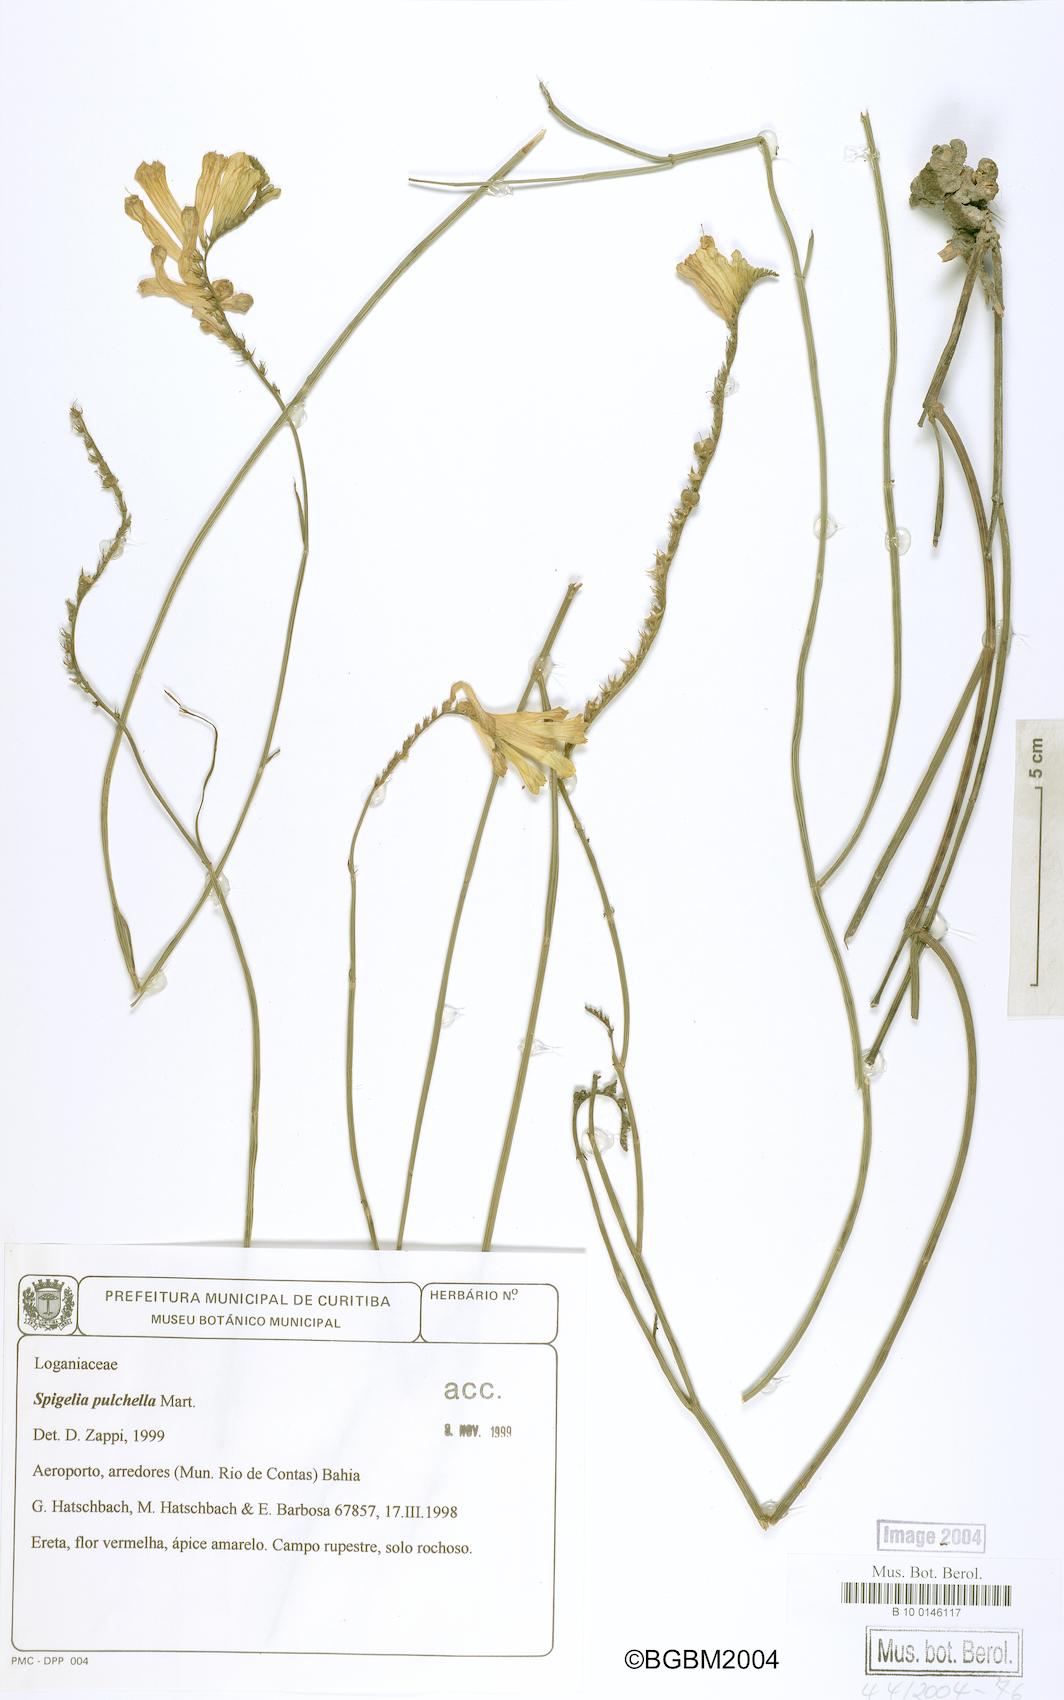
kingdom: Plantae
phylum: Tracheophyta
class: Magnoliopsida
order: Gentianales
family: Loganiaceae
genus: Spigelia
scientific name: Spigelia pulchella
